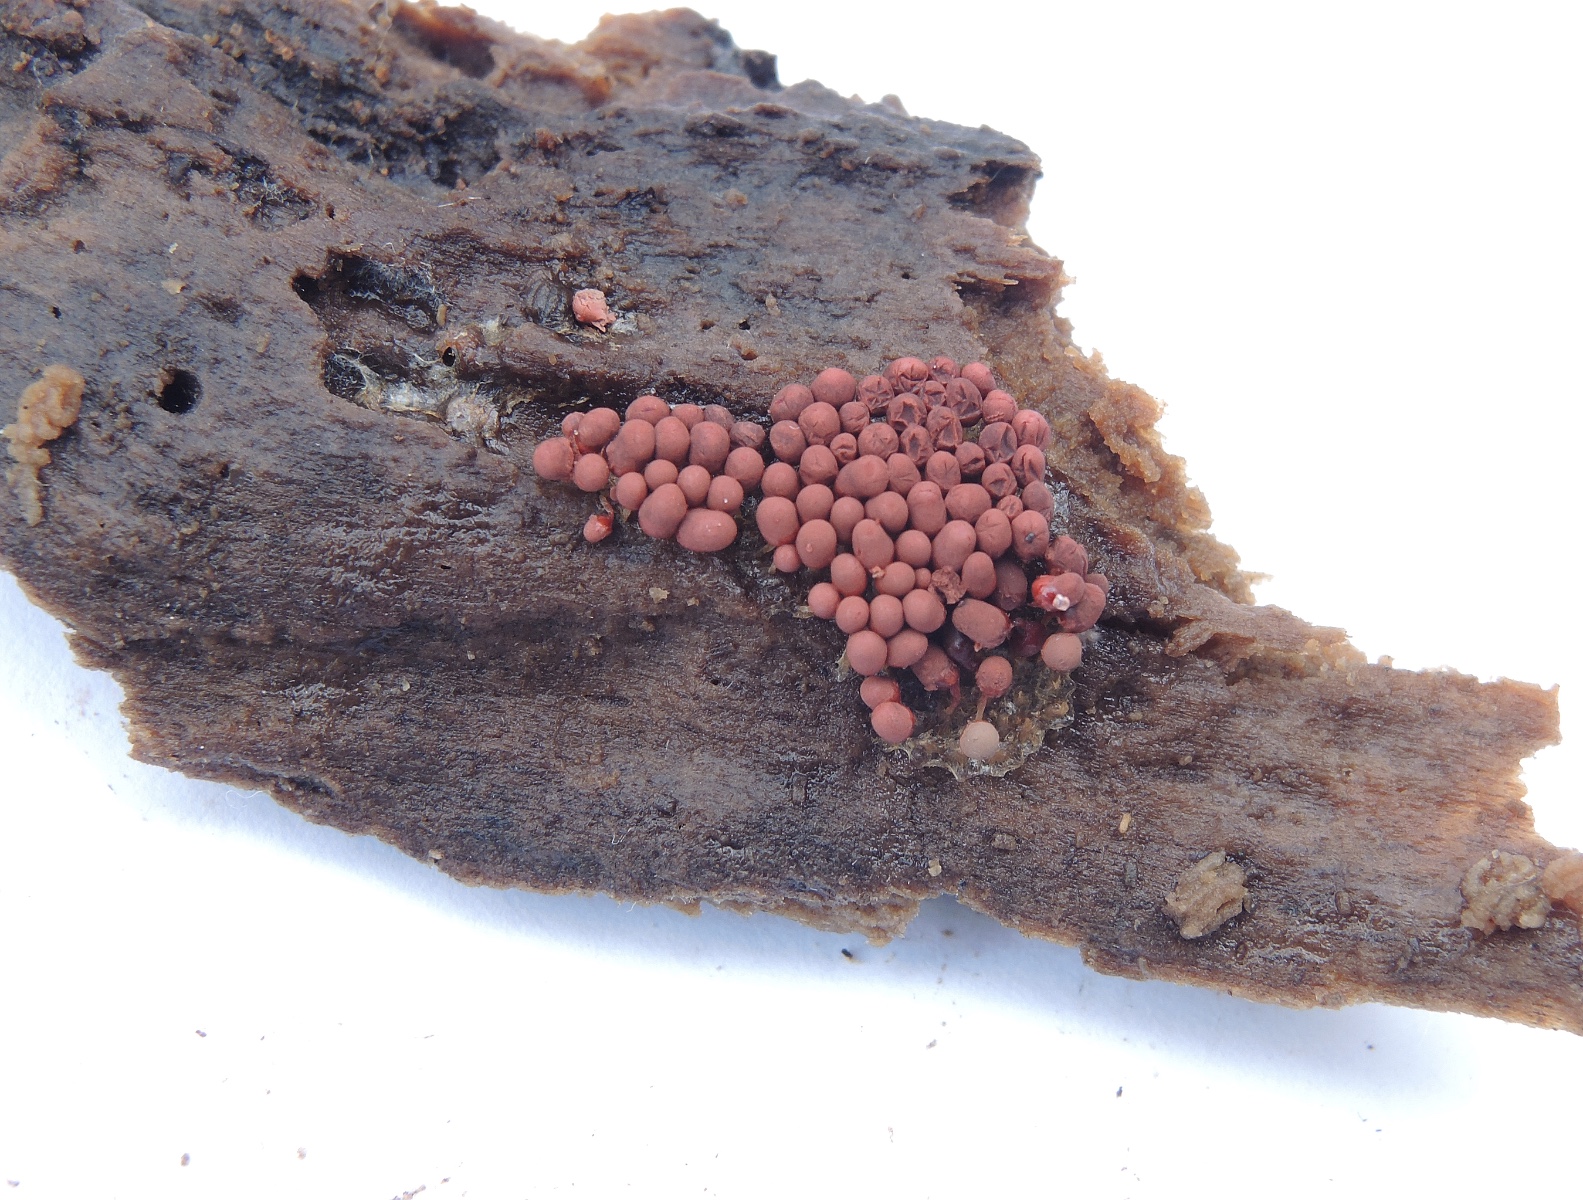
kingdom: Protozoa
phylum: Mycetozoa
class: Myxomycetes
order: Trichiales
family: Arcyriaceae
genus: Arcyria
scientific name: Arcyria affinis
